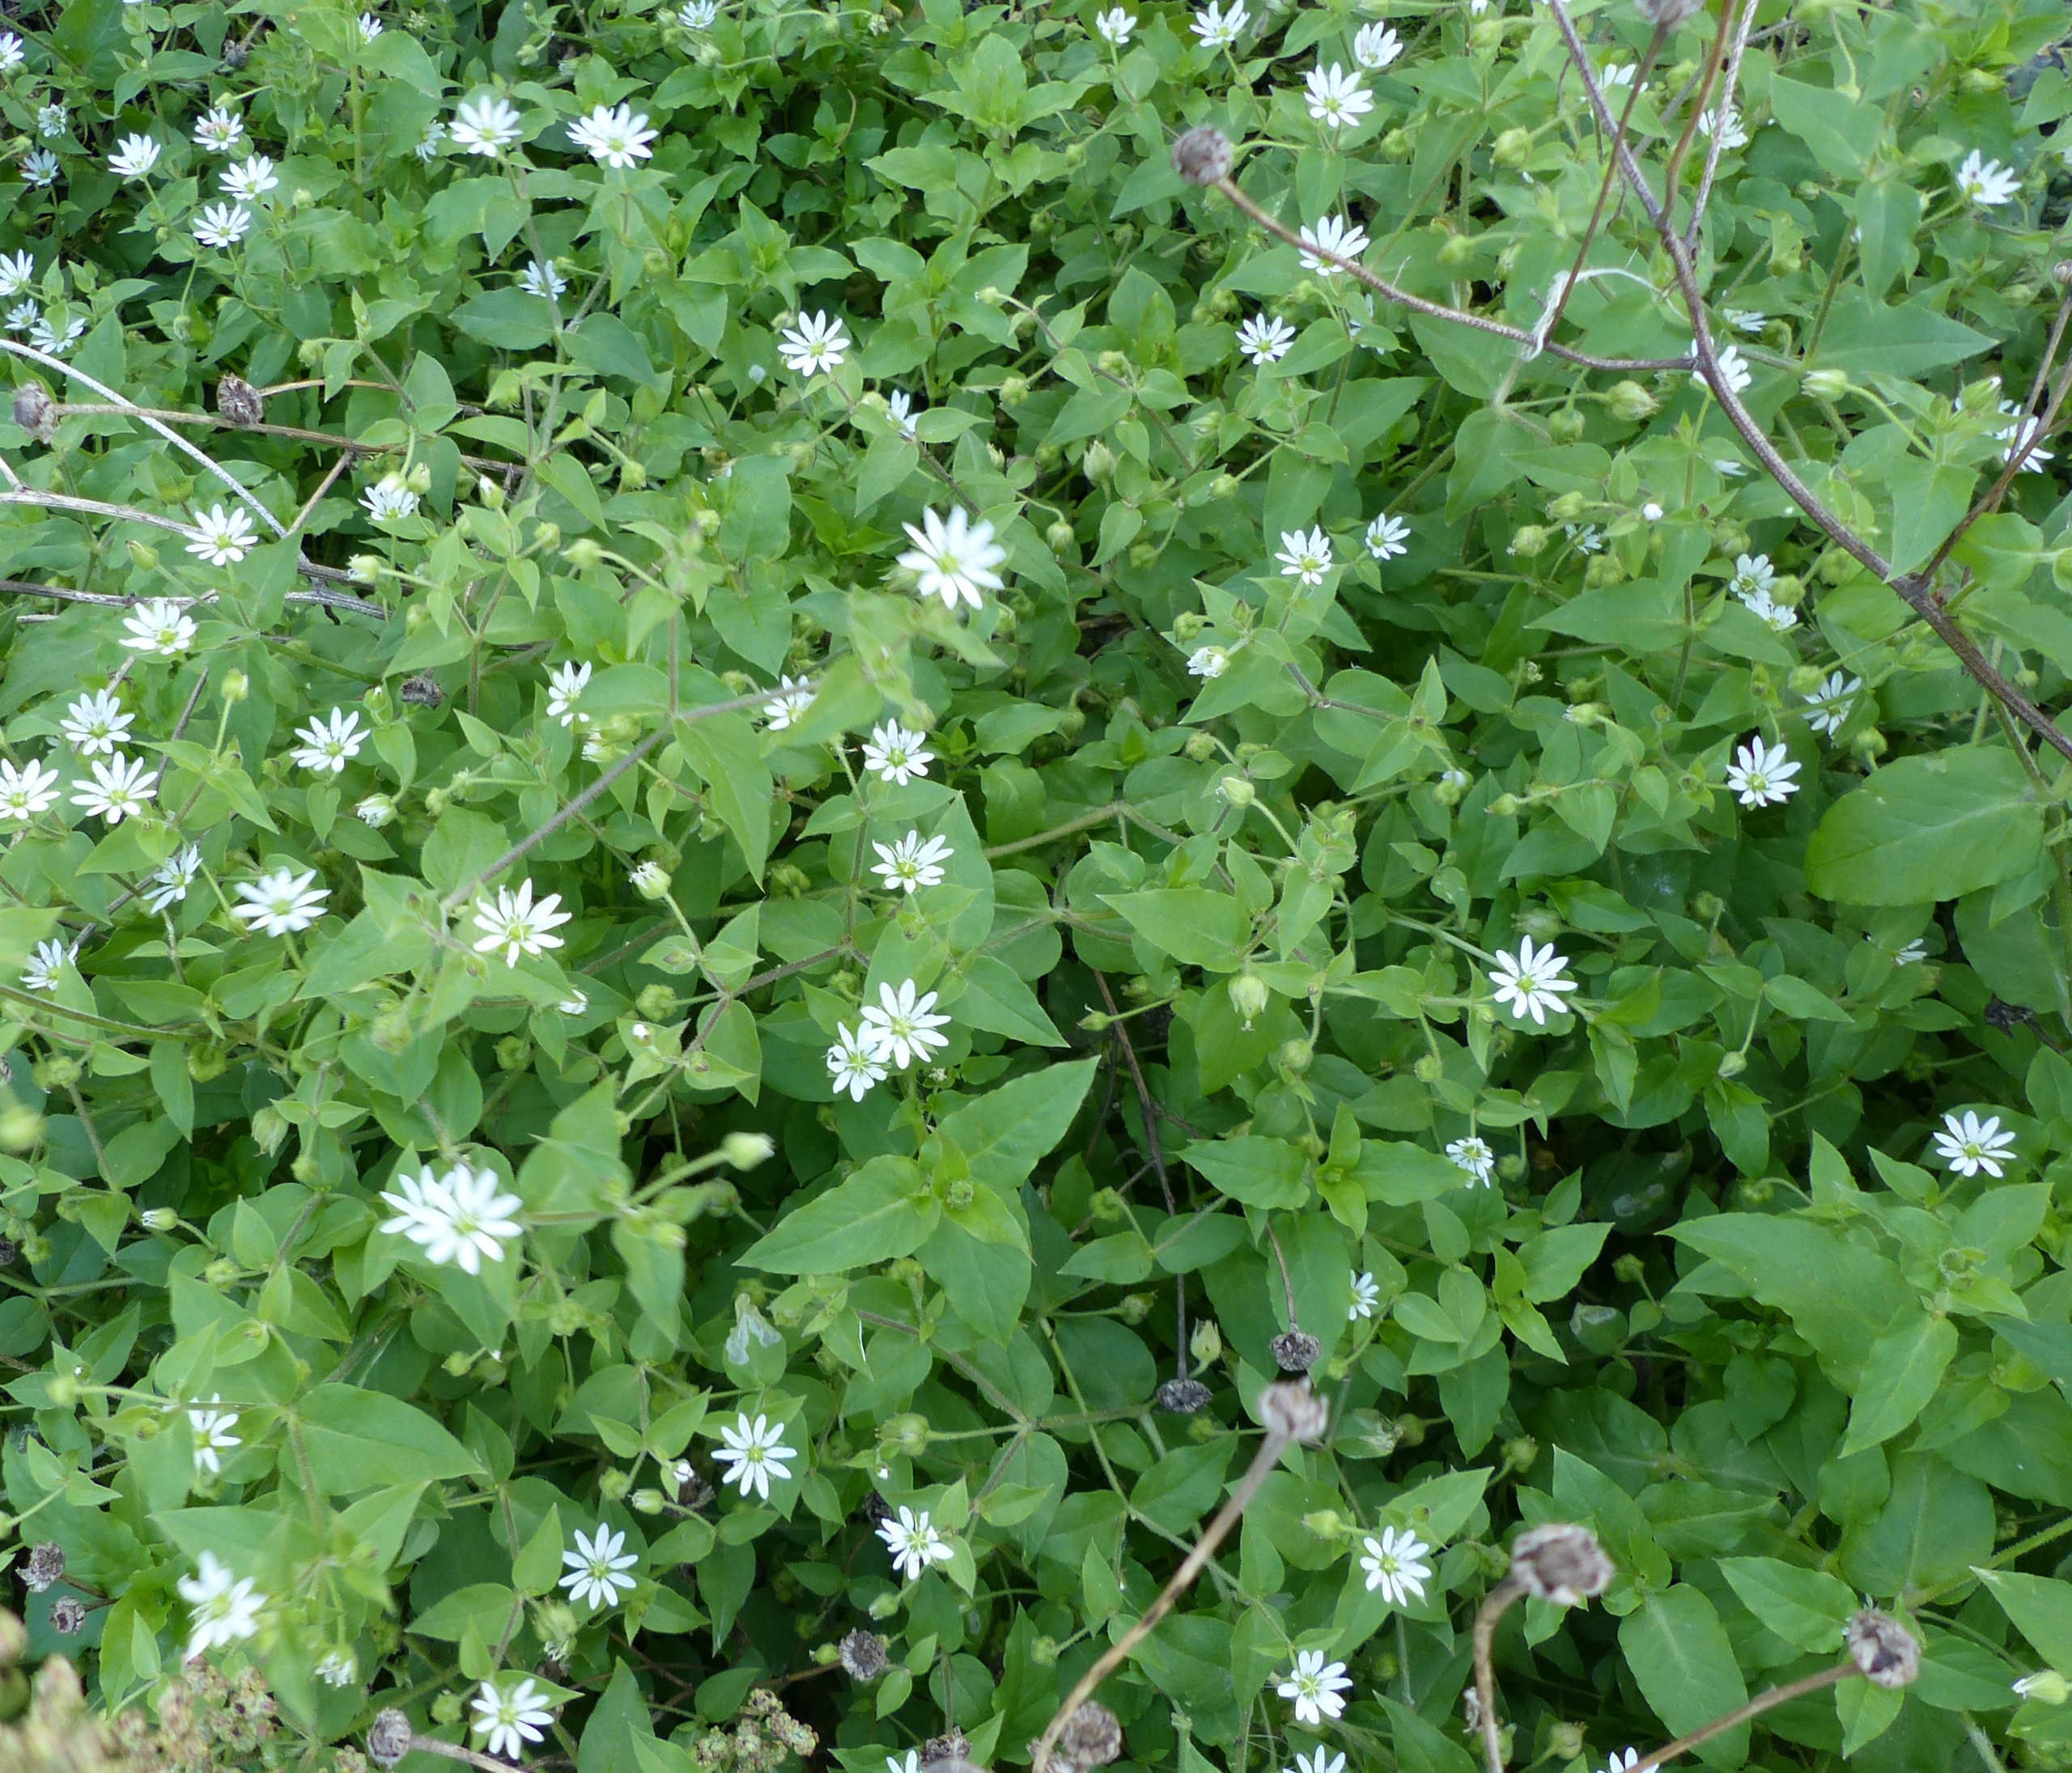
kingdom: Plantae
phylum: Tracheophyta
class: Magnoliopsida
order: Caryophyllales
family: Caryophyllaceae
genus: Stellaria
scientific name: Stellaria aquatica
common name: Kløvkrone
